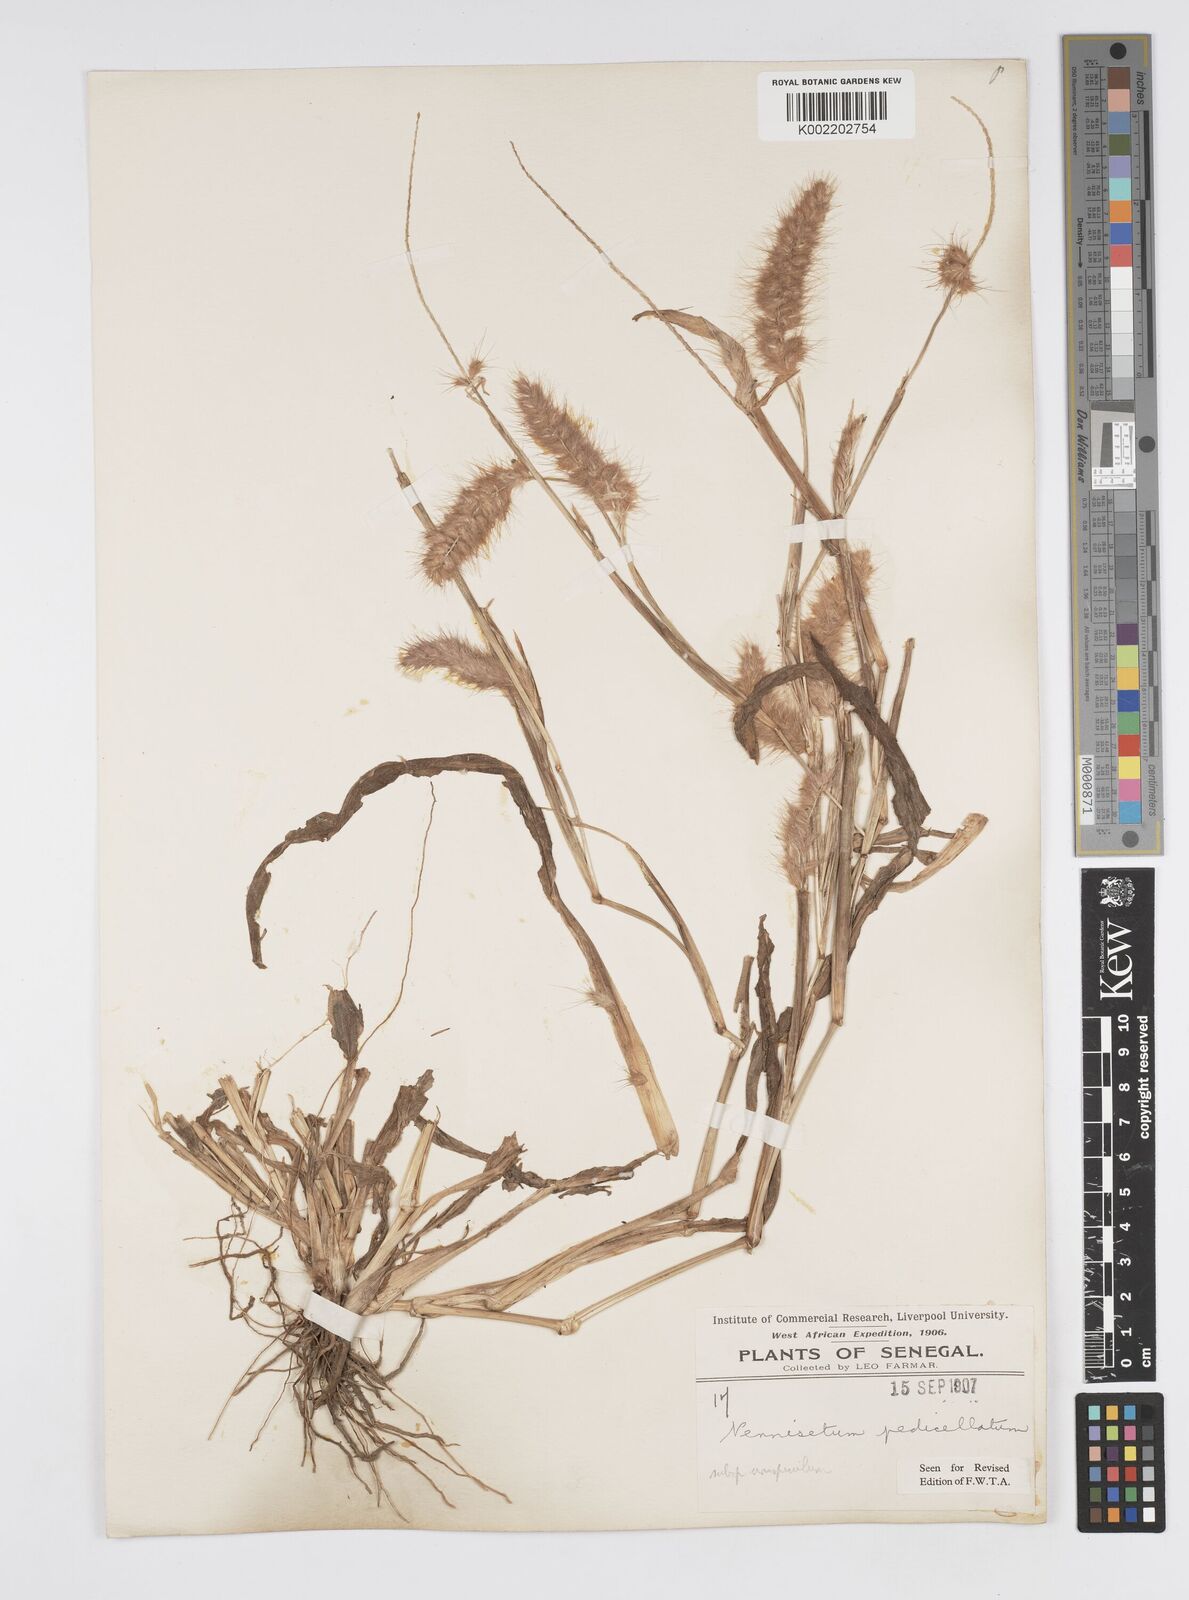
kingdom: Plantae
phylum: Tracheophyta
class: Liliopsida
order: Poales
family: Poaceae
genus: Cenchrus
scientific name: Cenchrus pedicellatus
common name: Hairy fountain grass
